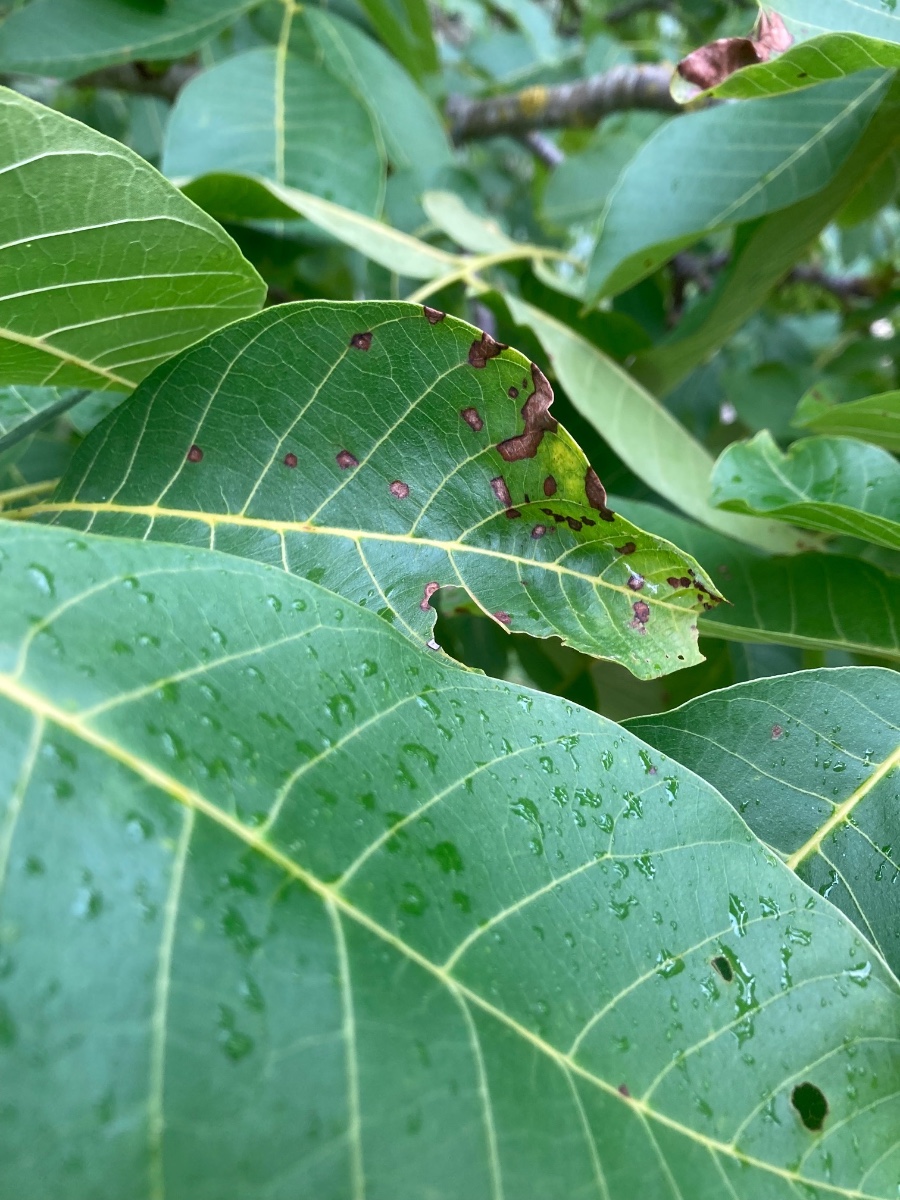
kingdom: Fungi
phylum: Ascomycota
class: Sordariomycetes
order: Diaporthales
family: Gnomoniaceae
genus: Ophiognomonia
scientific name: Ophiognomonia leptostyla
